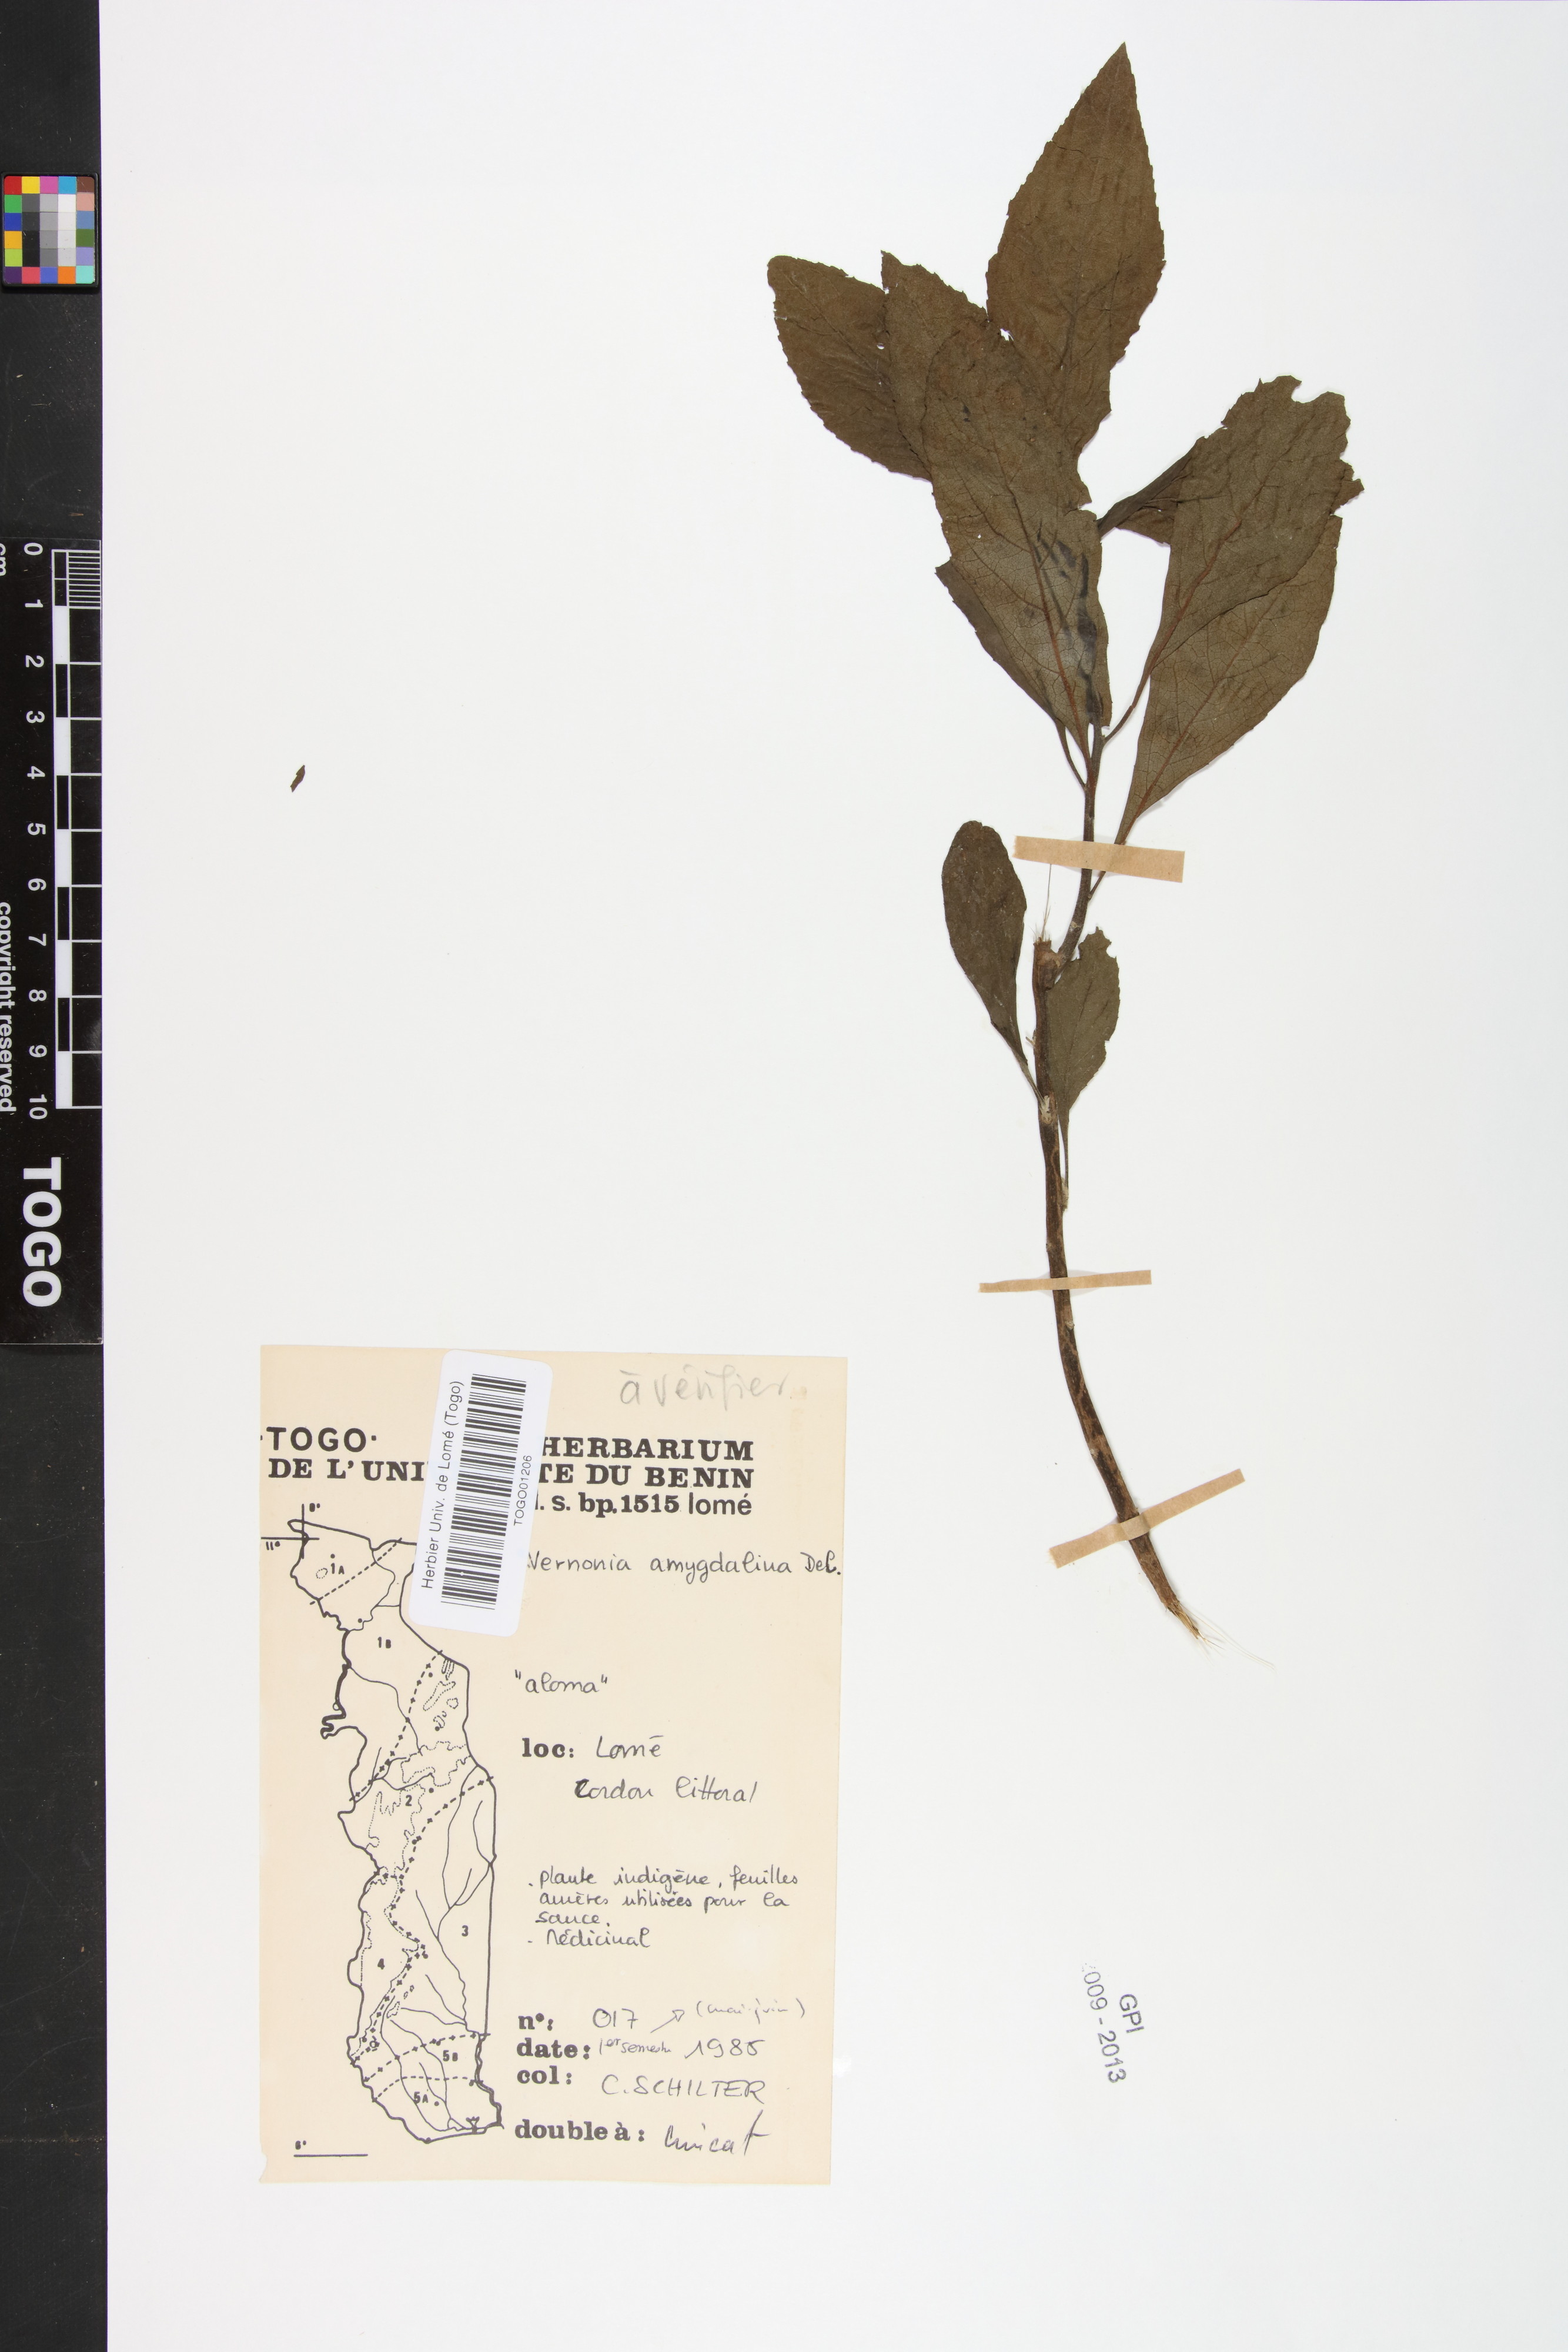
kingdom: Plantae
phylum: Tracheophyta
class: Magnoliopsida
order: Asterales
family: Asteraceae
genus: Gymnanthemum
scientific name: Gymnanthemum amygdalinum
